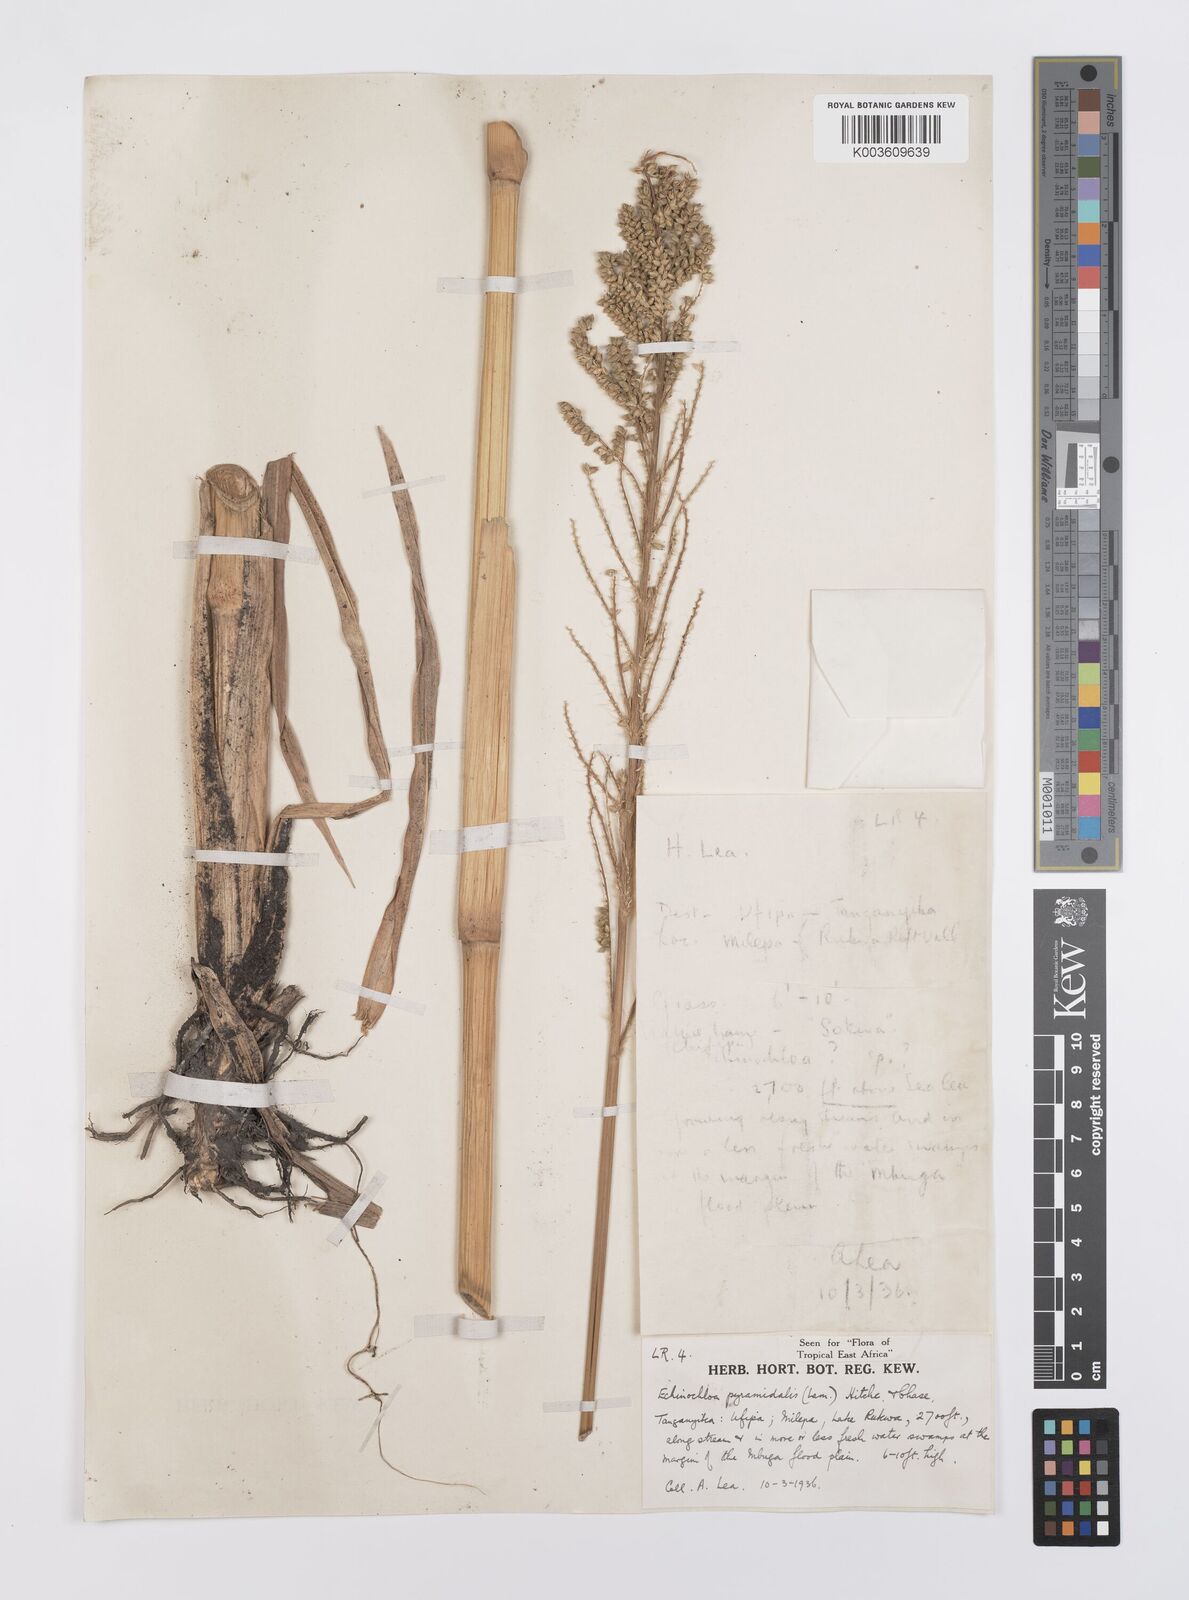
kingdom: Plantae
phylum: Tracheophyta
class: Liliopsida
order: Poales
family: Poaceae
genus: Echinochloa
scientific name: Echinochloa pyramidalis
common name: Antelope grass
